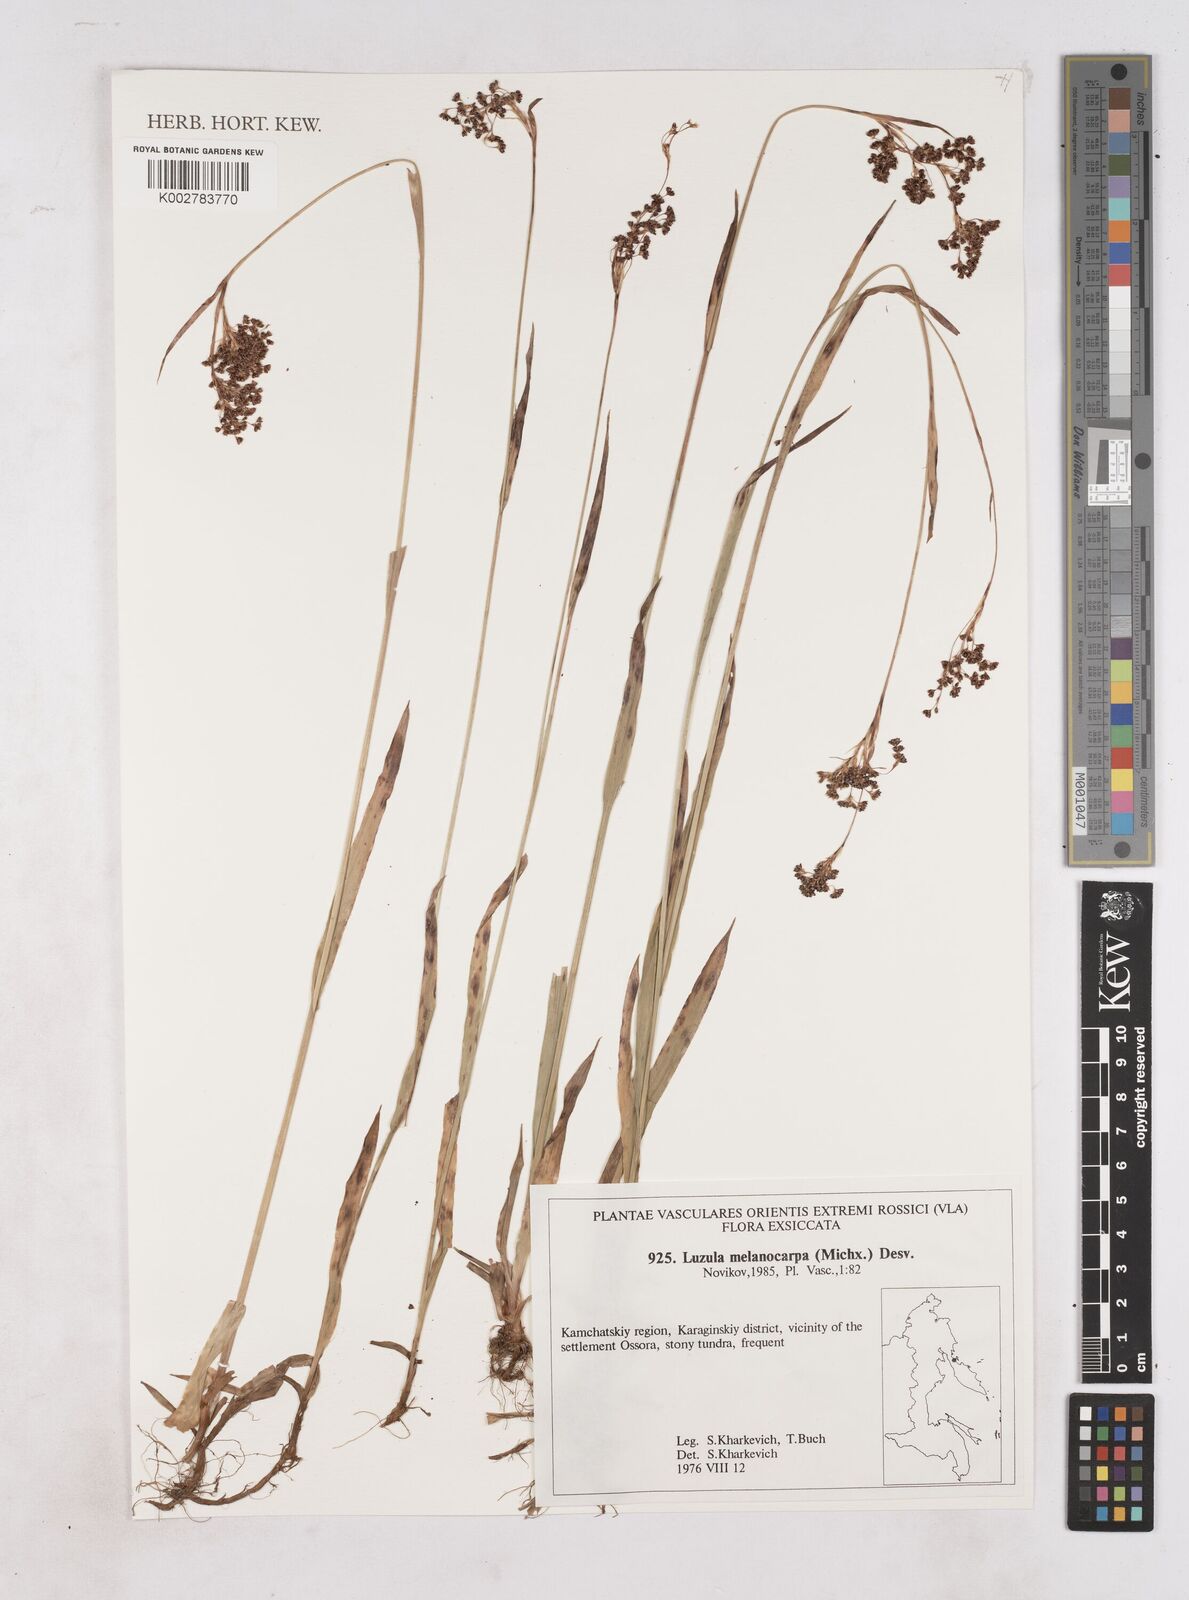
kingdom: Plantae
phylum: Tracheophyta
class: Liliopsida
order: Poales
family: Juncaceae
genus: Luzula
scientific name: Luzula parviflora
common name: Millet woodrush
